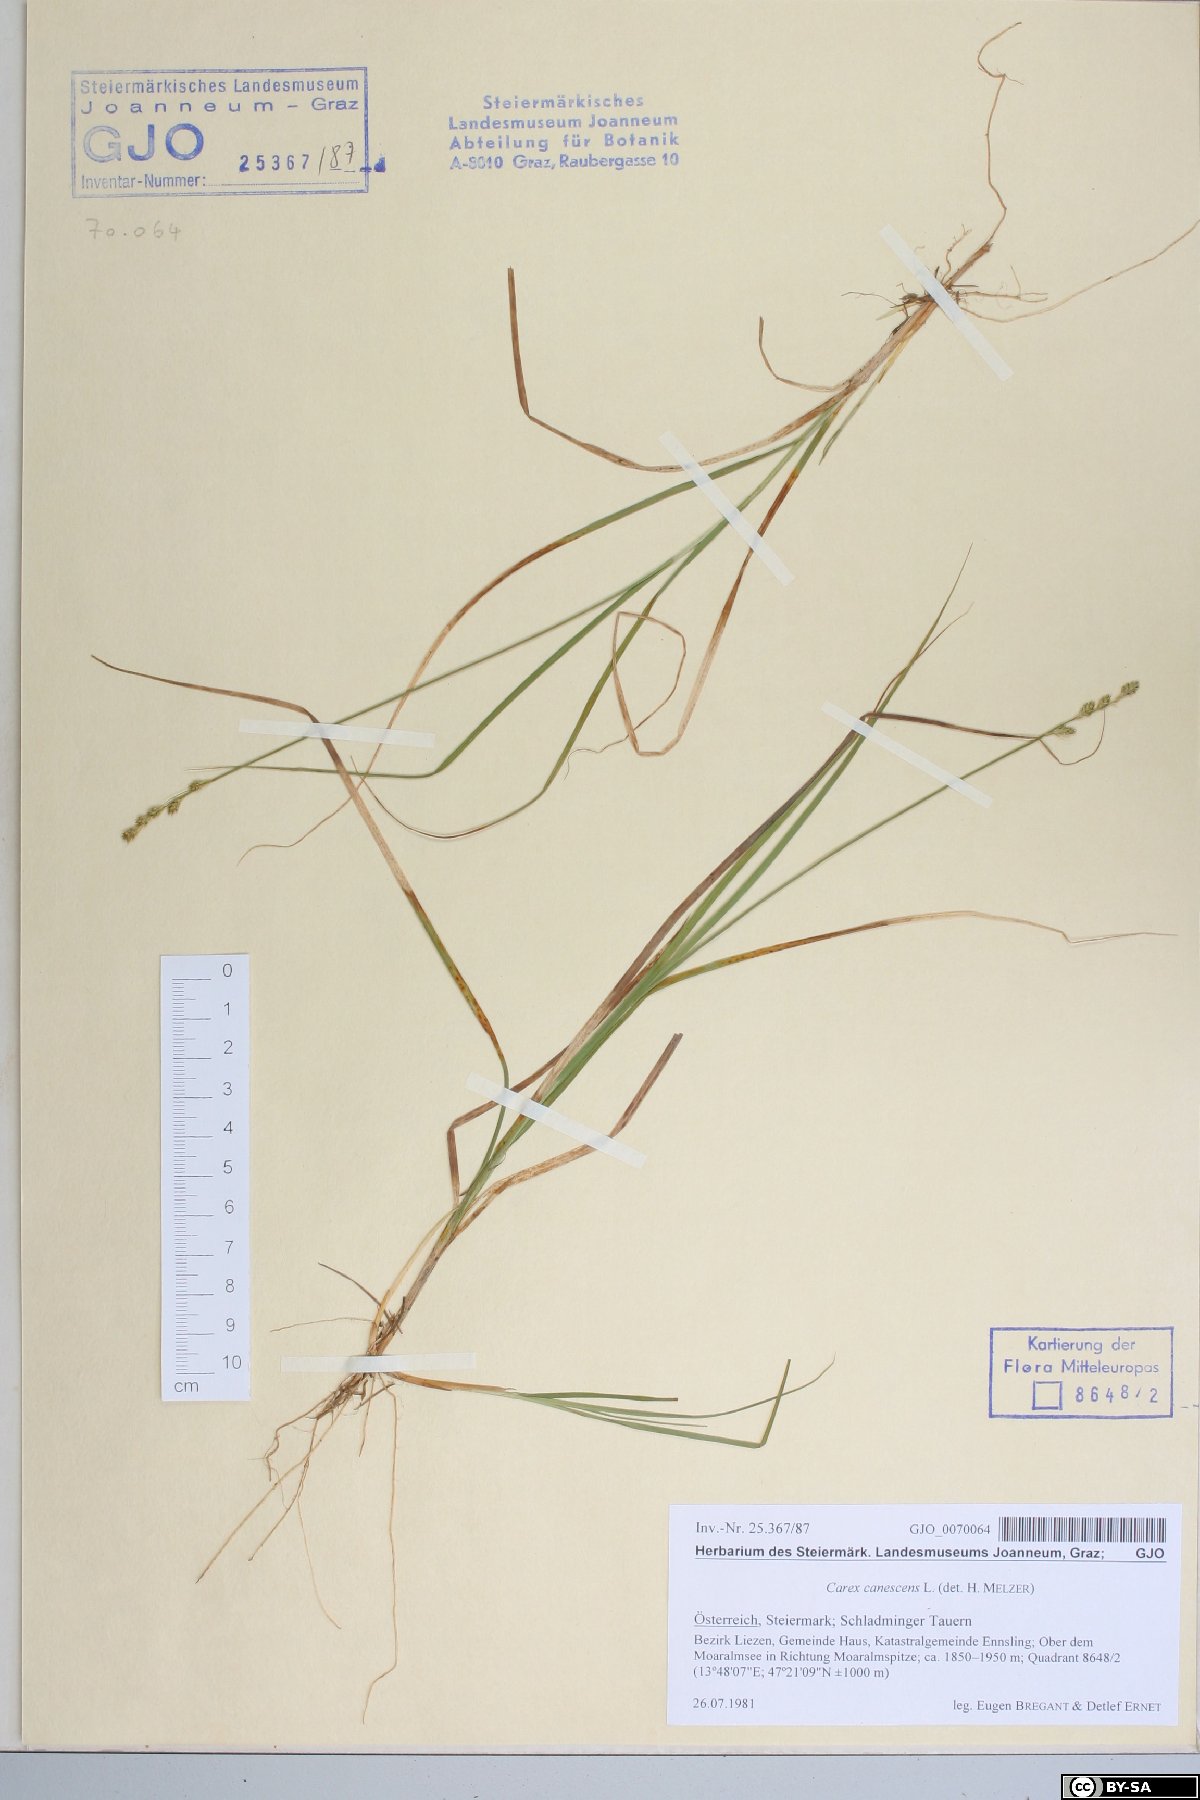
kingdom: Plantae
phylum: Tracheophyta
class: Liliopsida
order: Poales
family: Cyperaceae
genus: Carex
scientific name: Carex canescens
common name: White sedge
